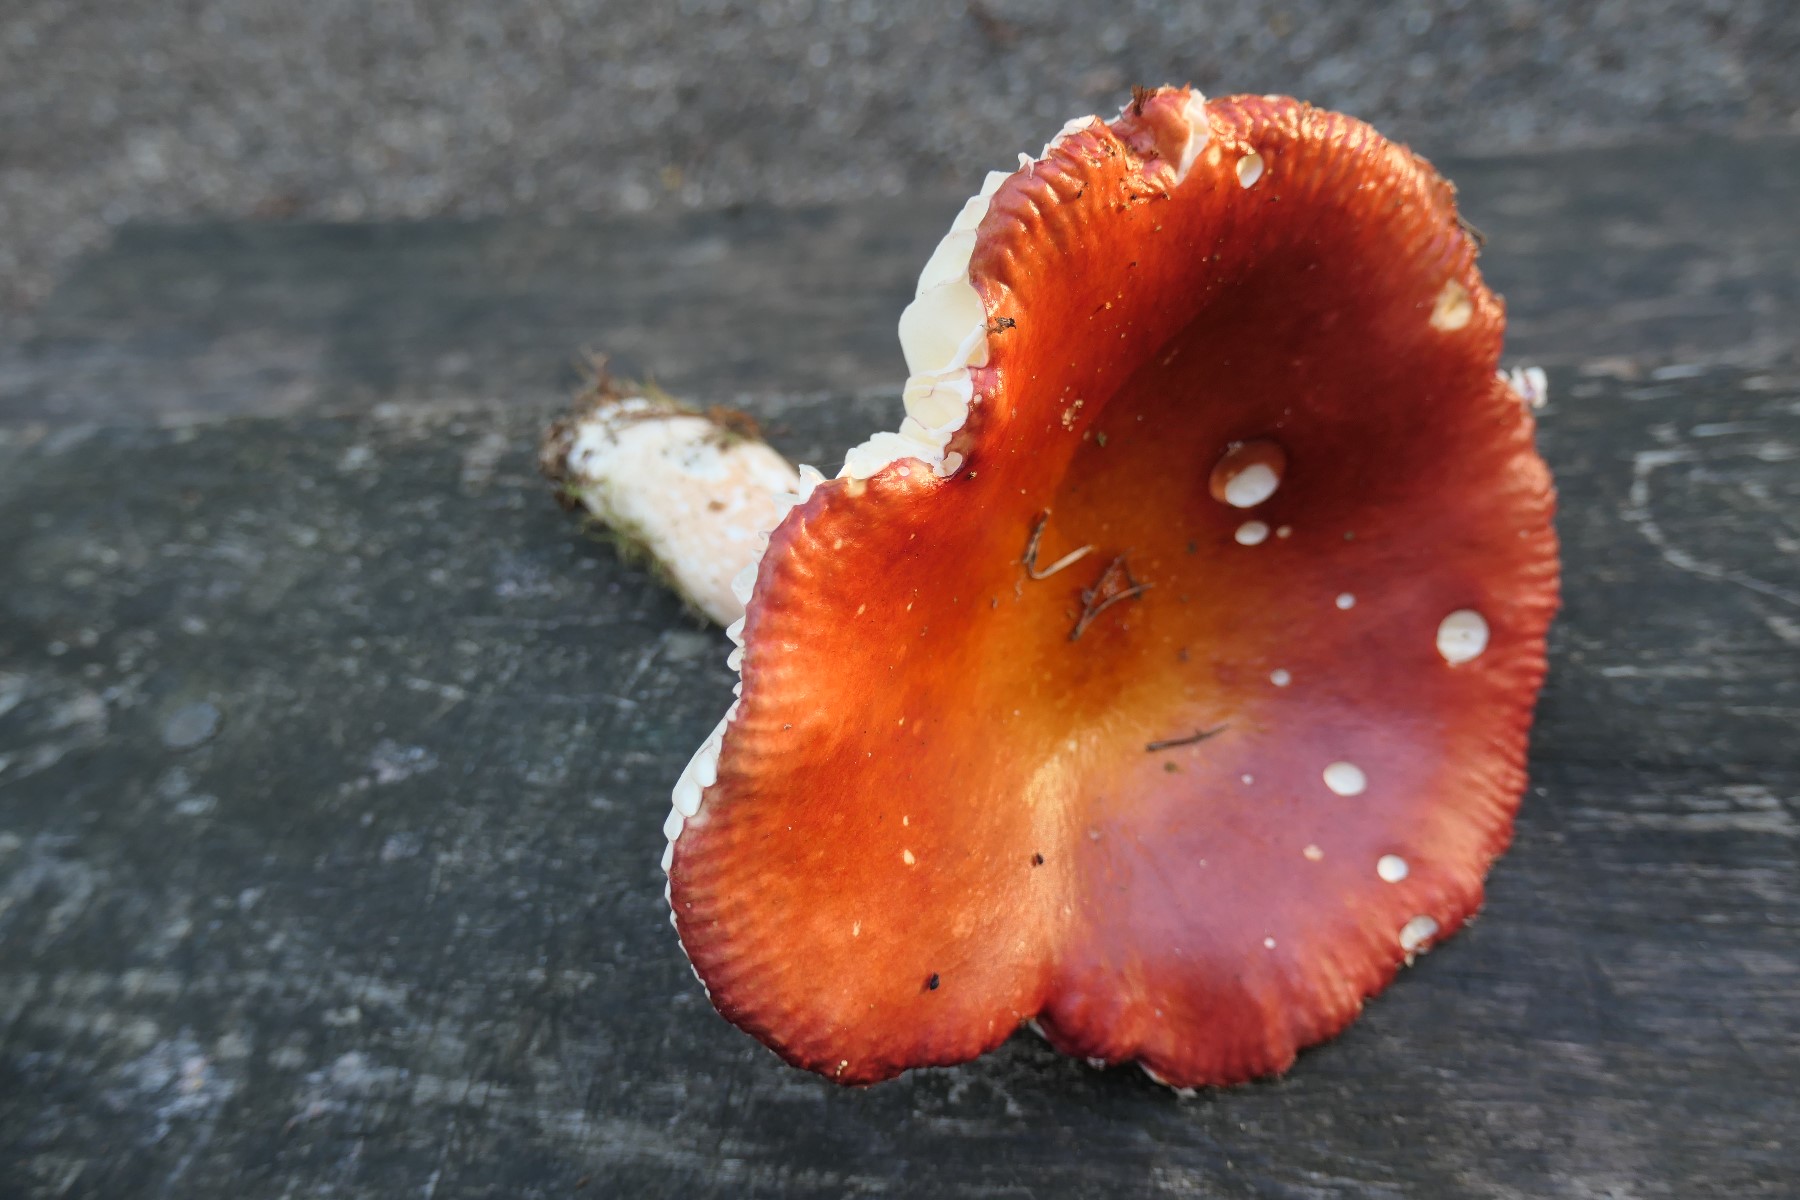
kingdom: Fungi
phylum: Basidiomycota
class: Agaricomycetes
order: Russulales
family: Russulaceae
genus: Russula
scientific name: Russula paludosa
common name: prægtig skørhat
